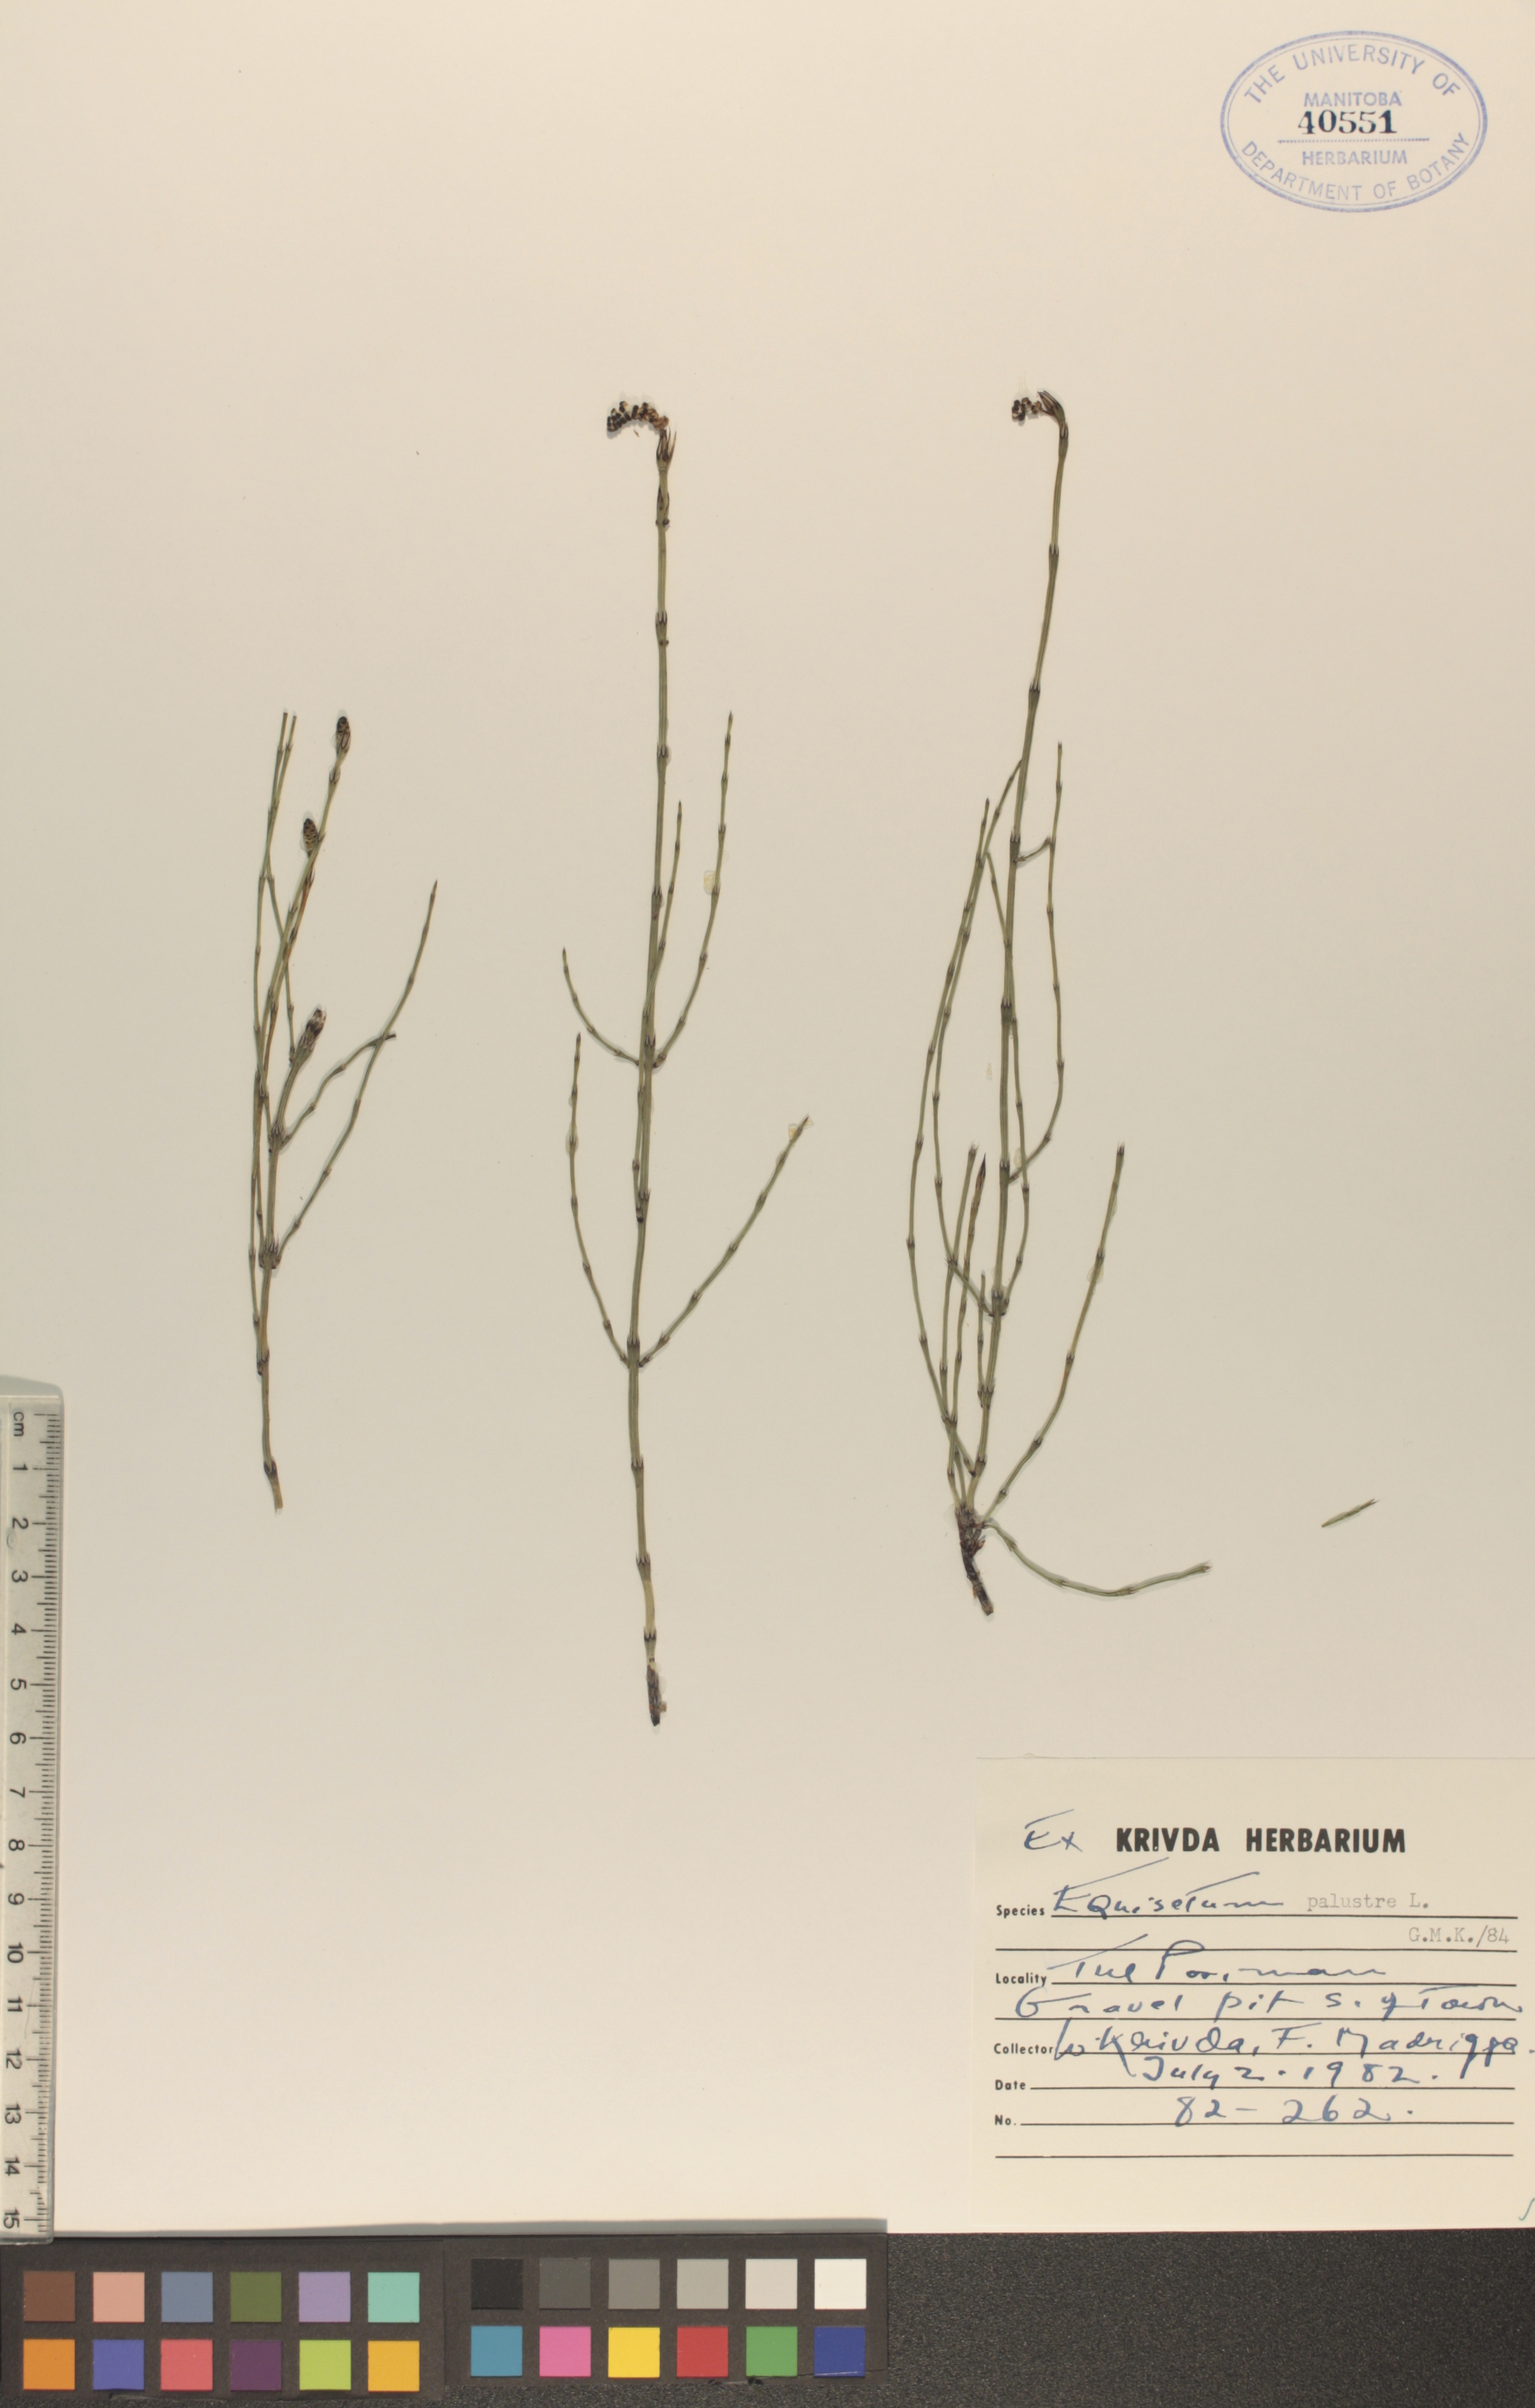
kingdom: Plantae
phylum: Tracheophyta
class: Polypodiopsida
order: Equisetales
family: Equisetaceae
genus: Equisetum
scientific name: Equisetum palustre
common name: Marsh horsetail
